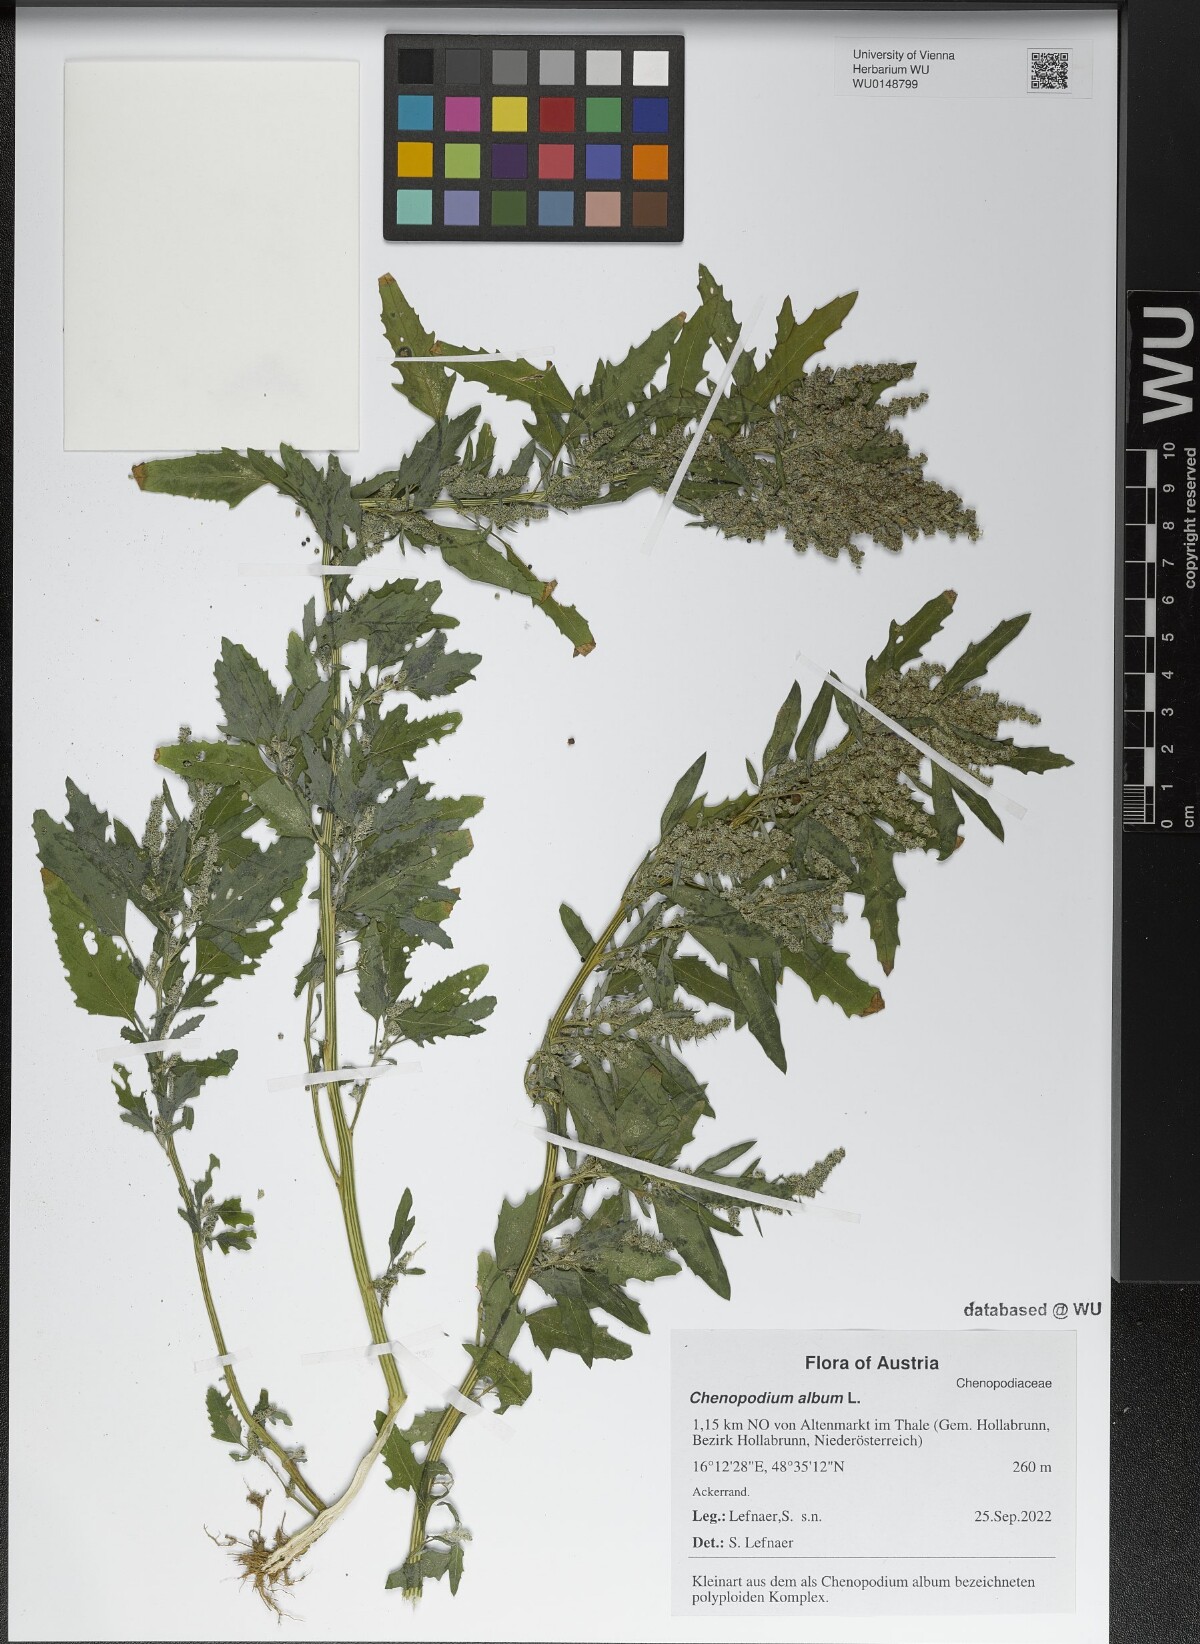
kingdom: Plantae
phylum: Tracheophyta
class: Magnoliopsida
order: Caryophyllales
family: Amaranthaceae
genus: Chenopodium
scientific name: Chenopodium album
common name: Fat-hen
